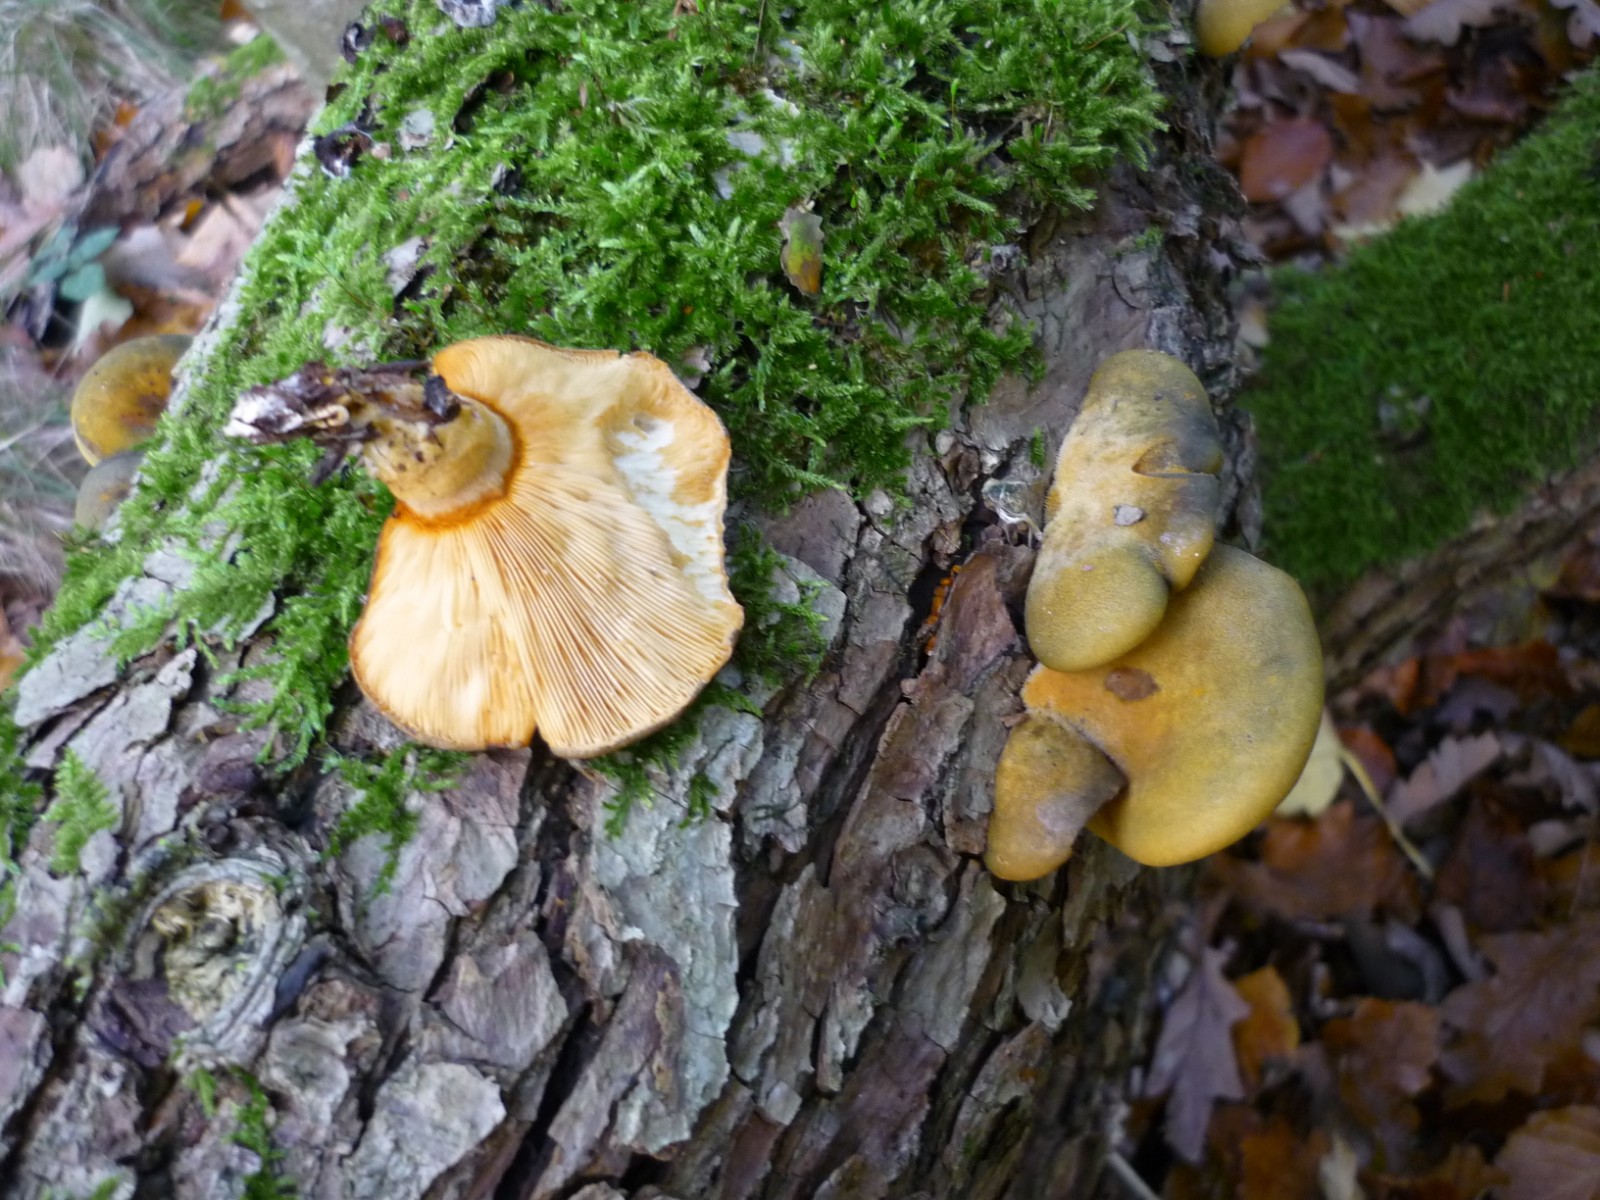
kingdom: Fungi
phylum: Basidiomycota
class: Agaricomycetes
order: Agaricales
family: Sarcomyxaceae
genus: Sarcomyxa
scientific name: Sarcomyxa serotina
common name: gummihat
